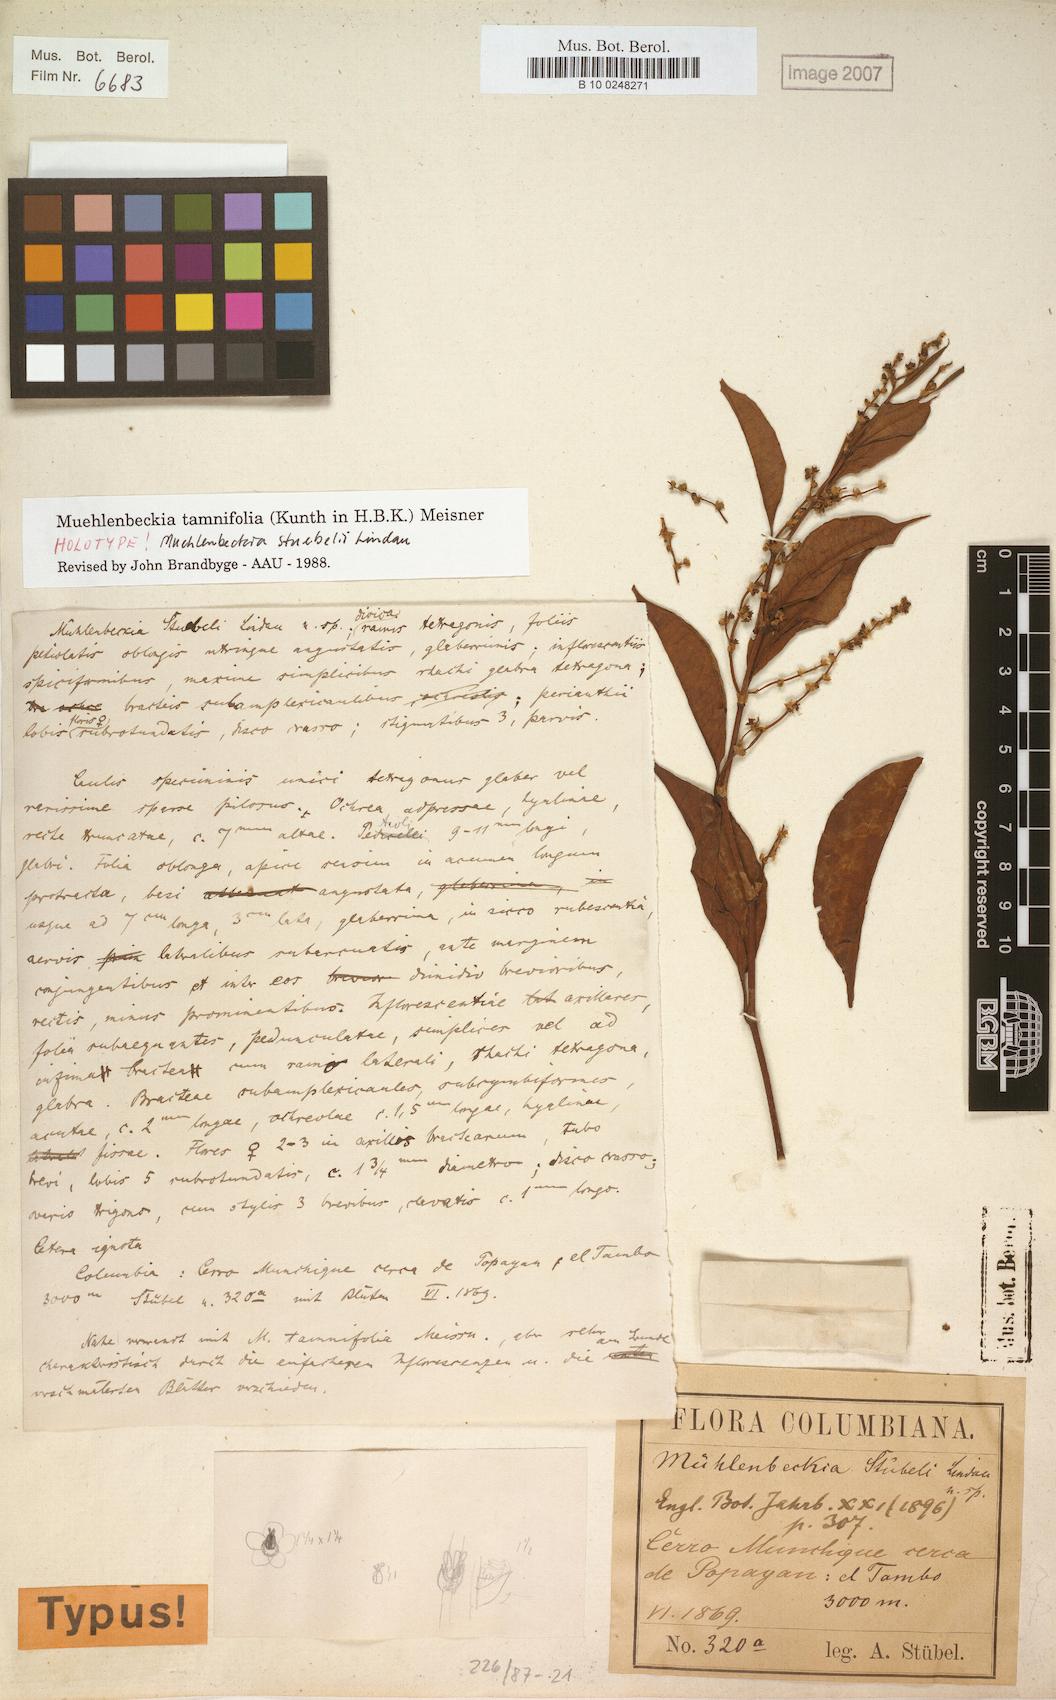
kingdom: Plantae
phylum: Tracheophyta
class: Magnoliopsida
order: Caryophyllales
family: Polygonaceae
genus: Muehlenbeckia
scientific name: Muehlenbeckia tamnifolia
